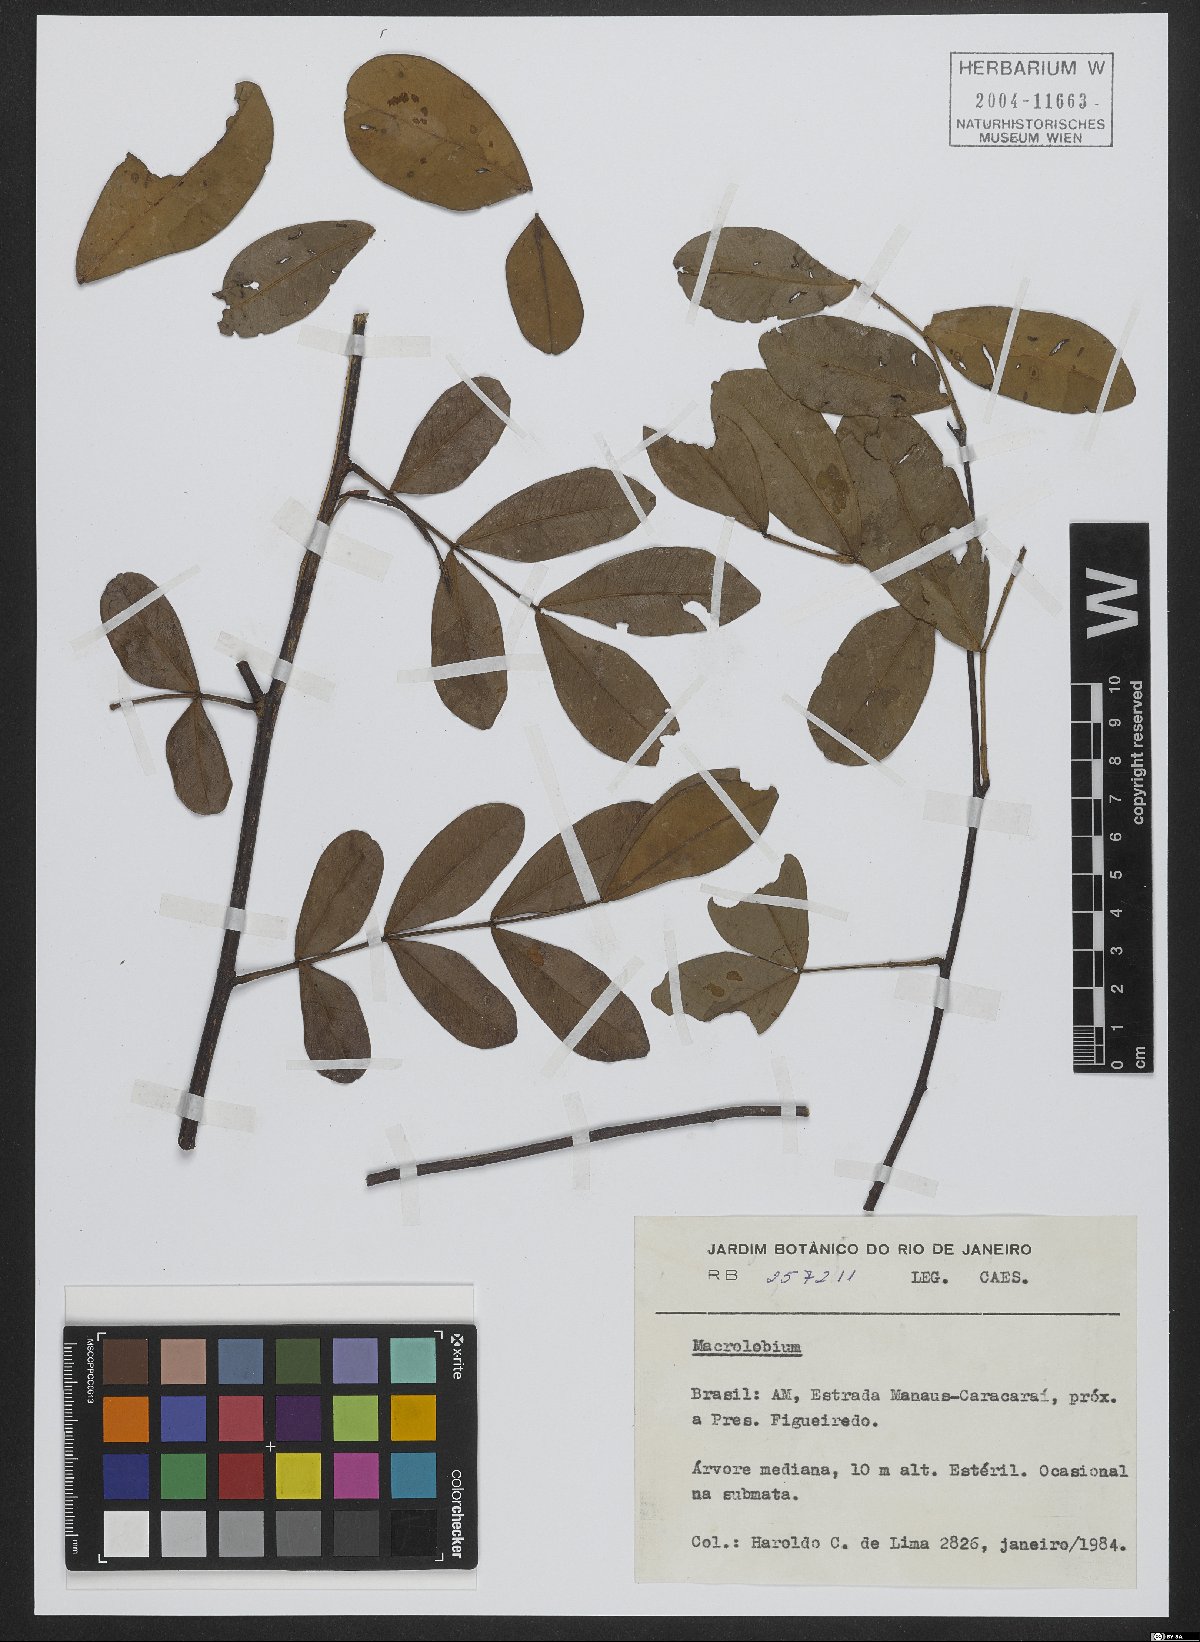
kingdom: Plantae
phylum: Tracheophyta
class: Magnoliopsida
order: Fabales
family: Fabaceae
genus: Macrolobium
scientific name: Macrolobium
